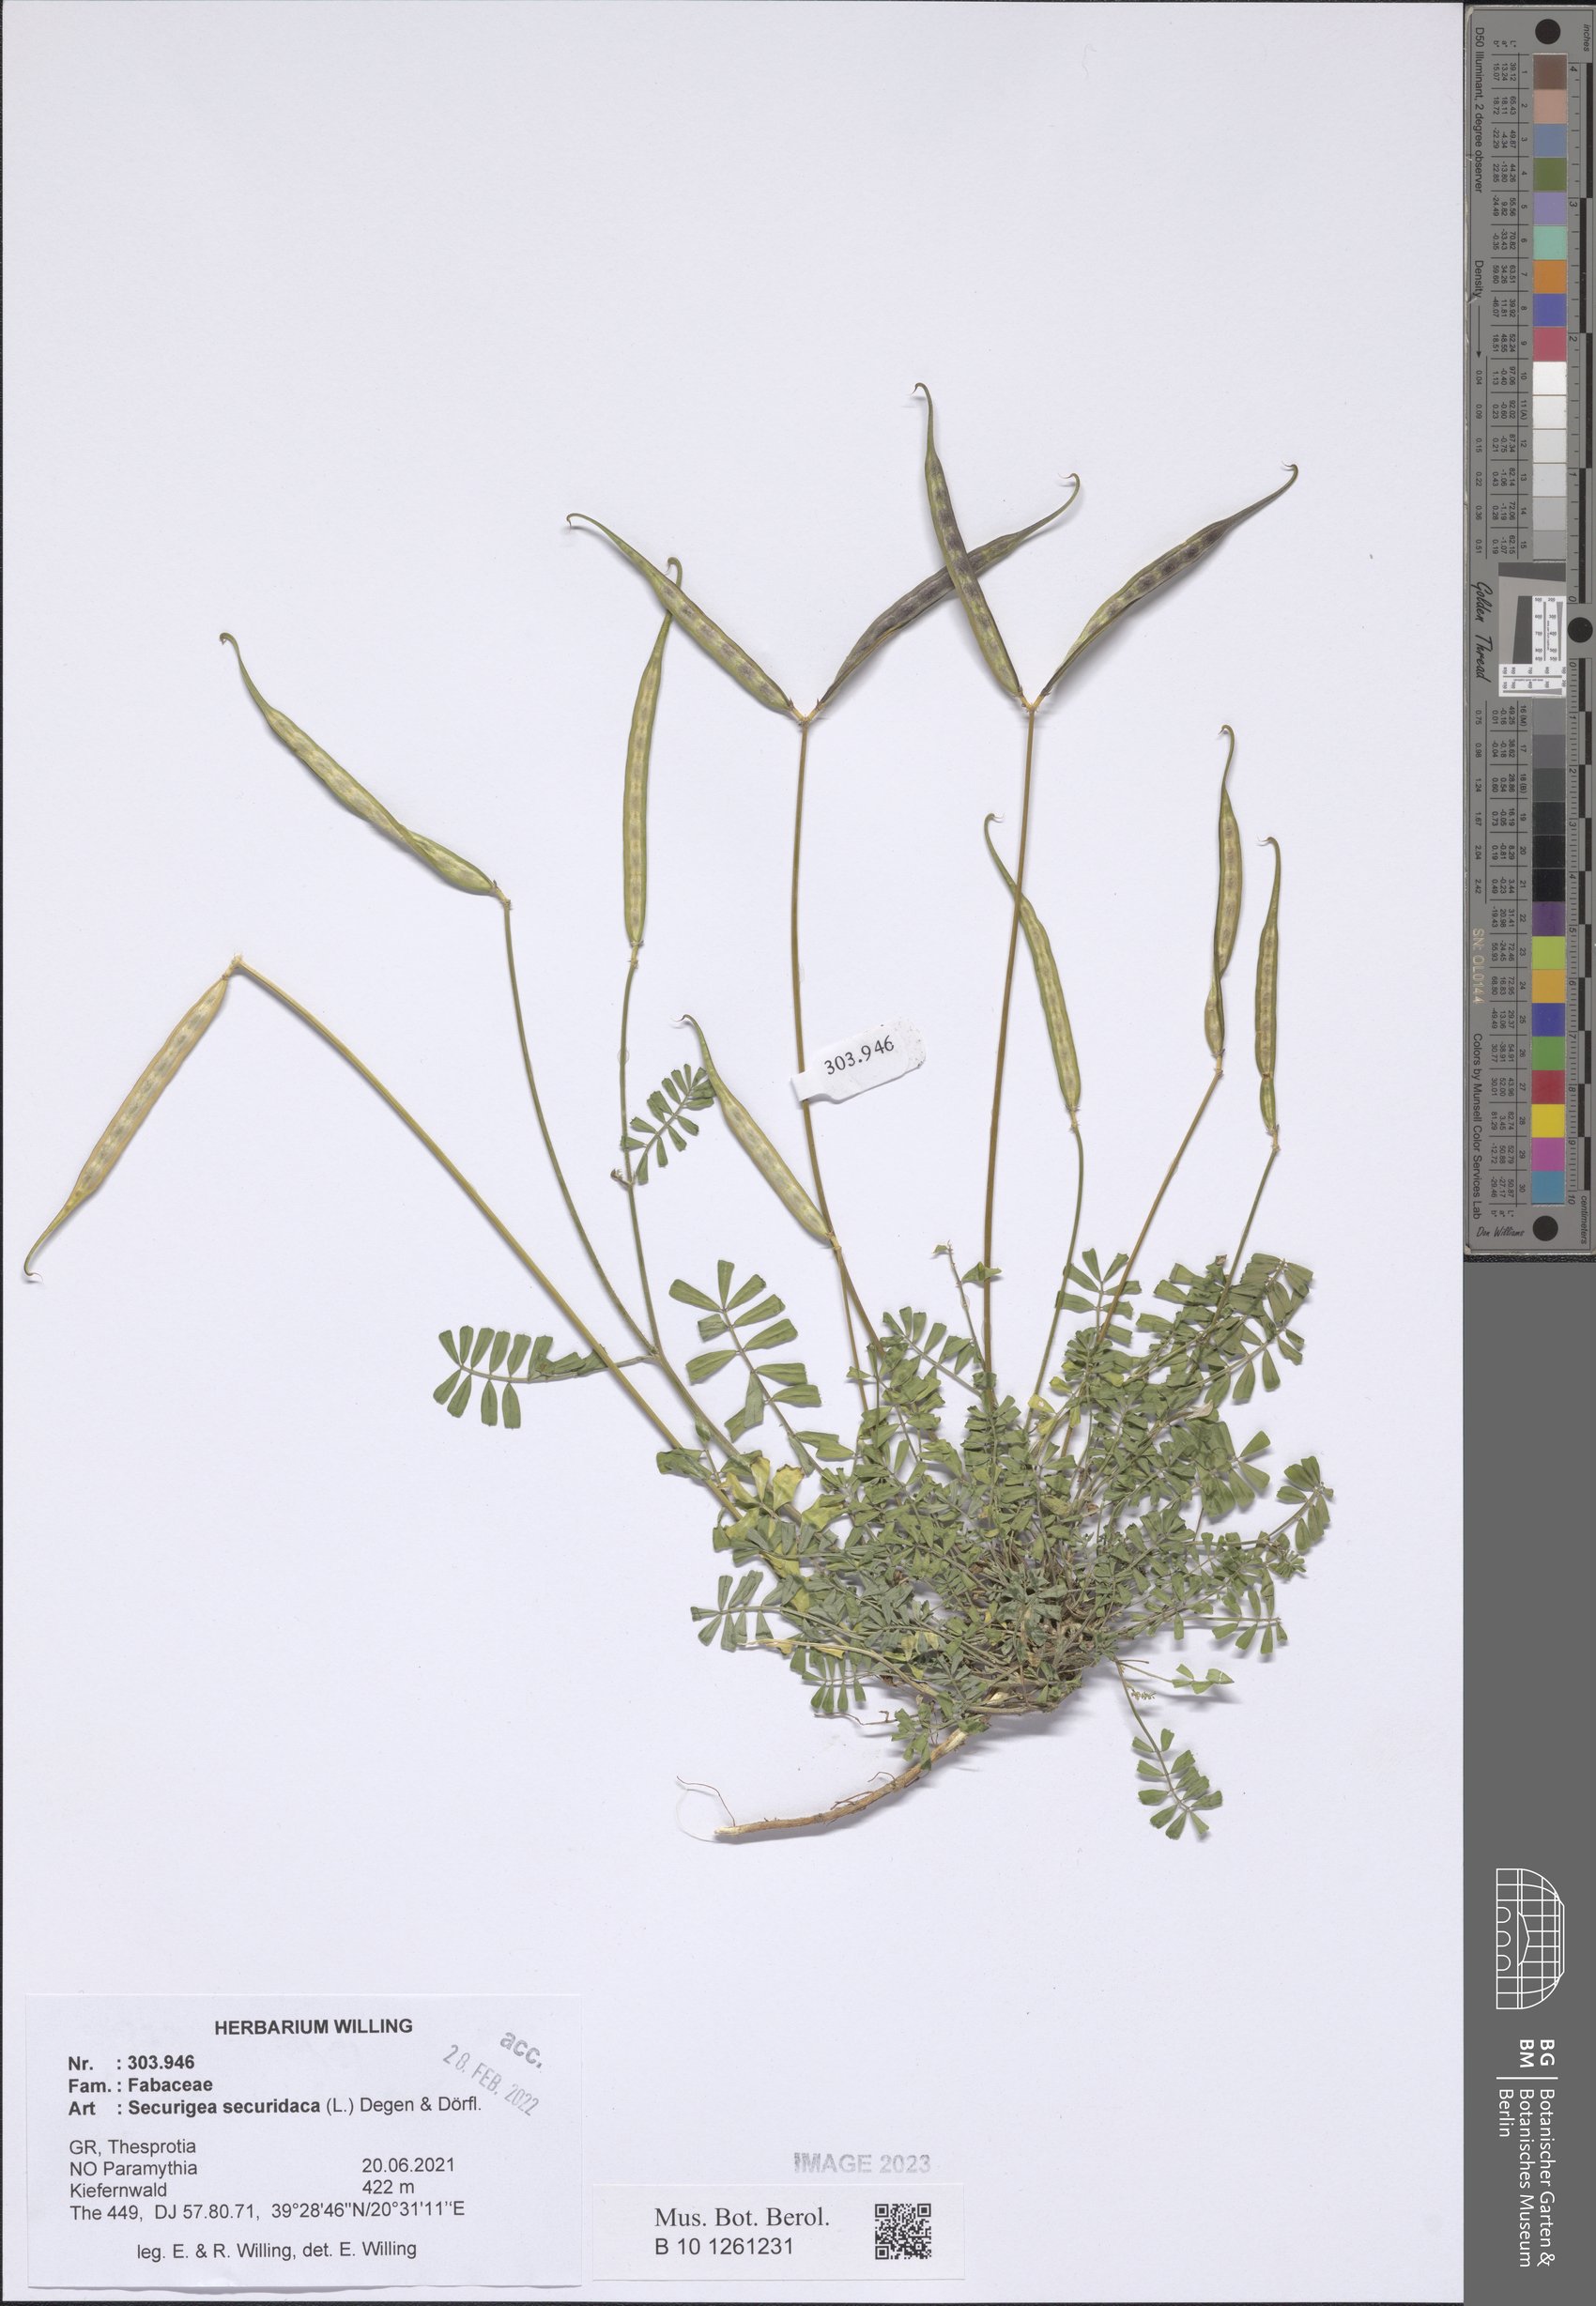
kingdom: Plantae
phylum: Tracheophyta
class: Magnoliopsida
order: Fabales
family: Fabaceae
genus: Coronilla
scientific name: Coronilla securidaca
